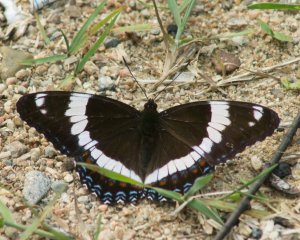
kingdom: Animalia
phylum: Arthropoda
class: Insecta
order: Lepidoptera
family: Nymphalidae
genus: Limenitis
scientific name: Limenitis arthemis
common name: Red-spotted Admiral
